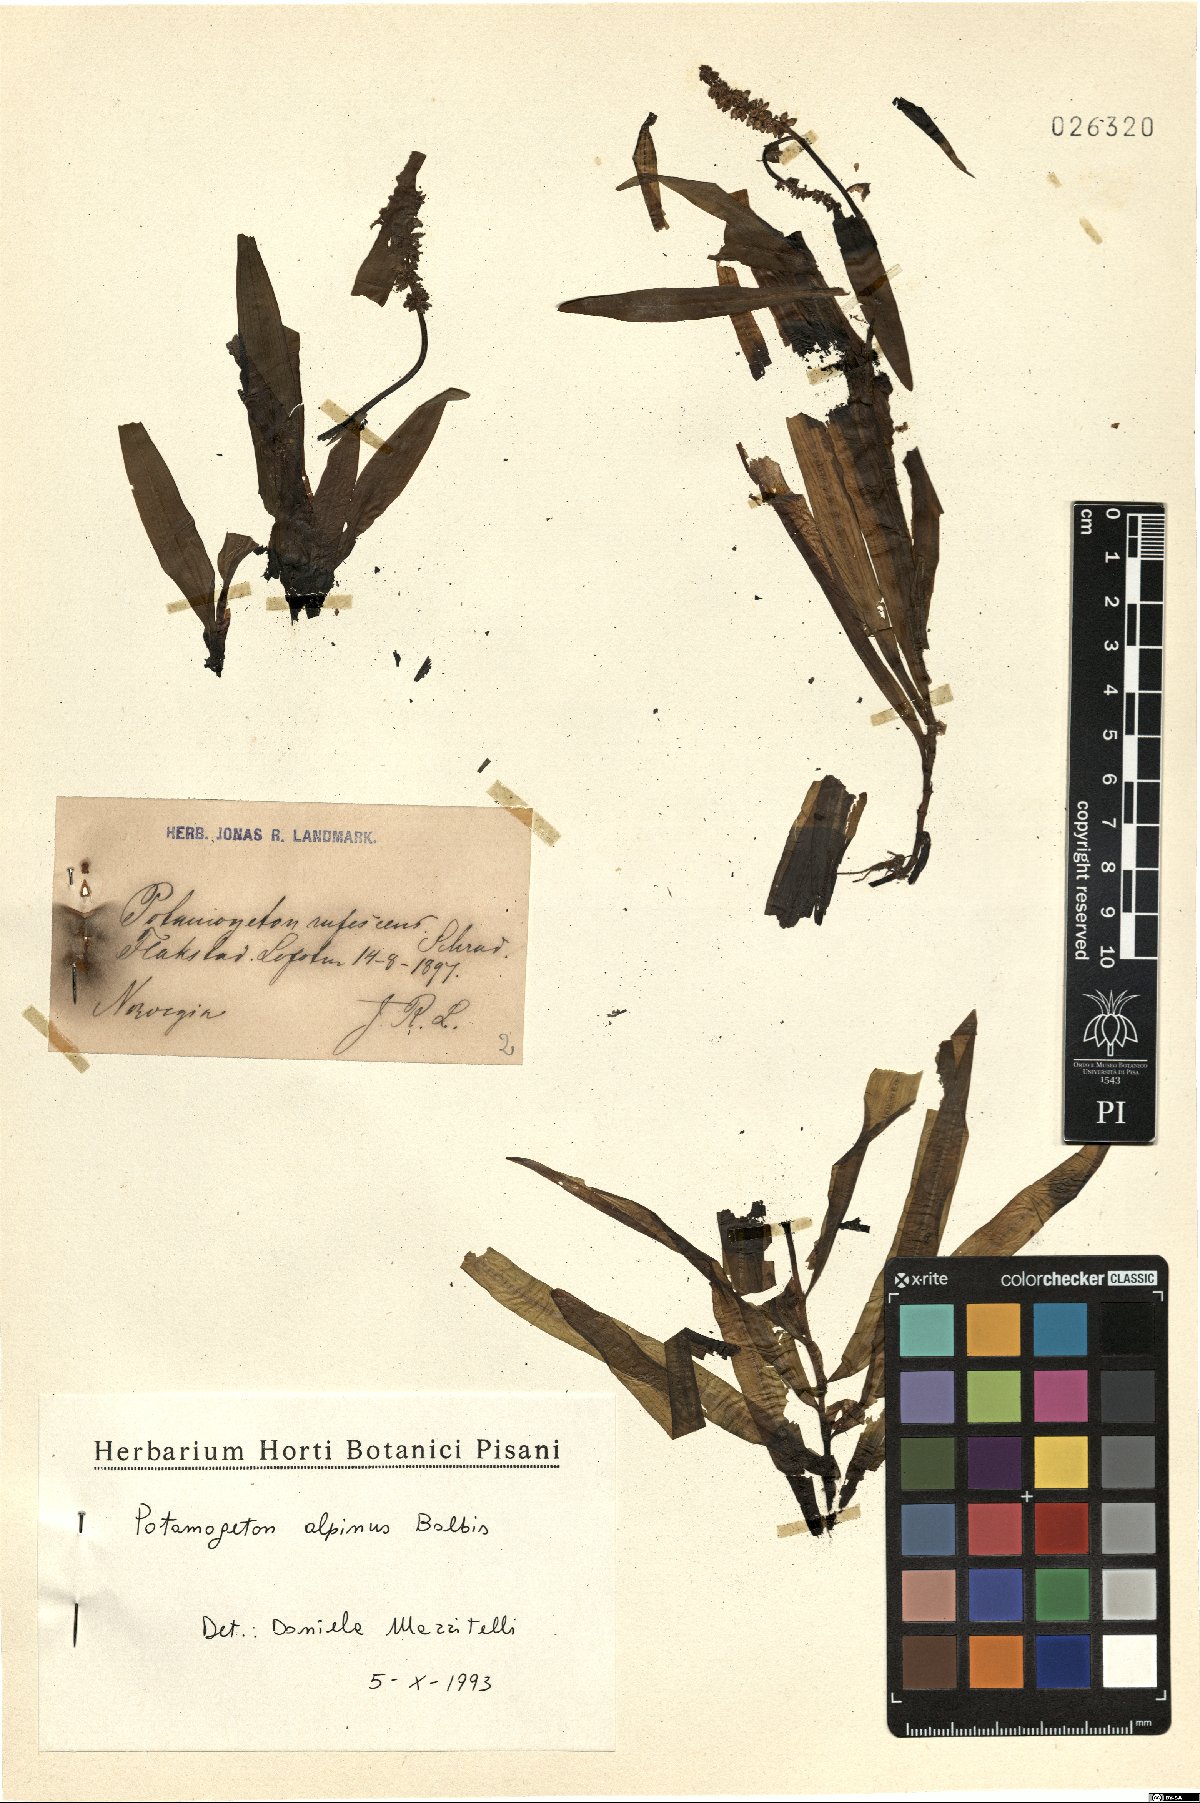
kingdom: Plantae
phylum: Tracheophyta
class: Liliopsida
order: Alismatales
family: Potamogetonaceae
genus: Potamogeton
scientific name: Potamogeton alpinus
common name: Red pondweed
